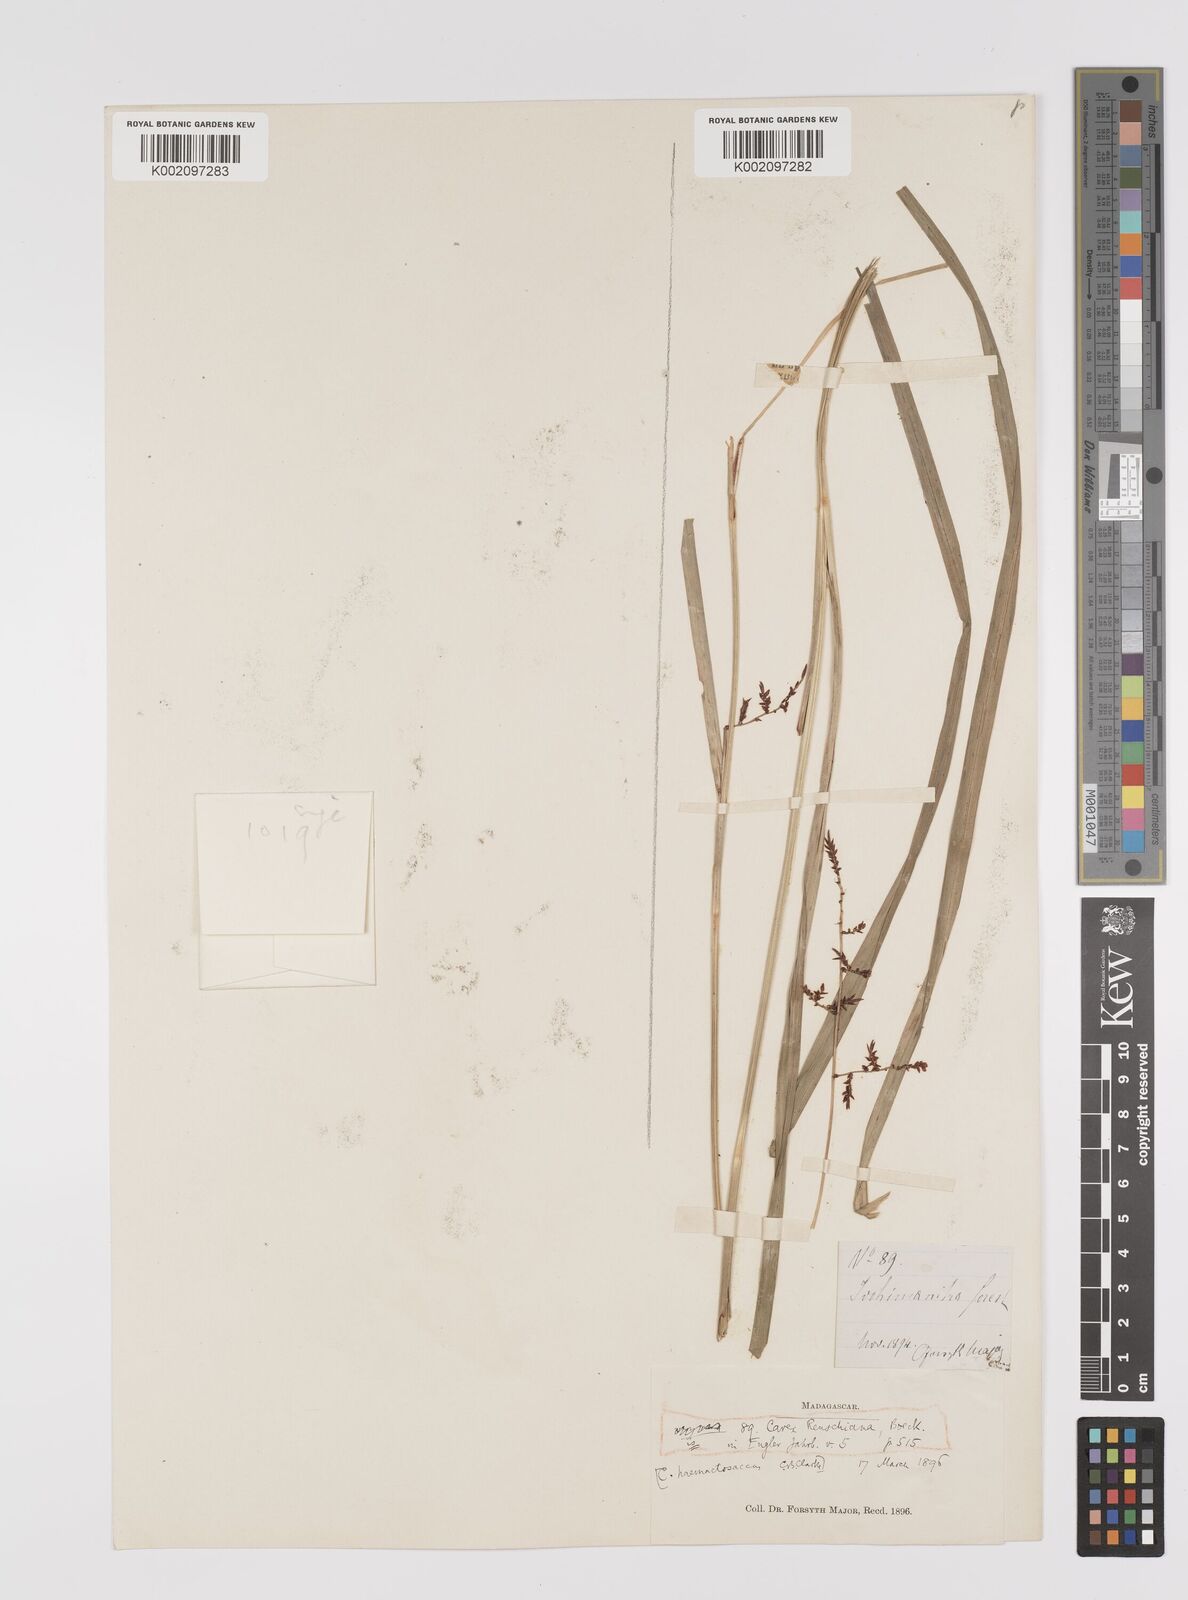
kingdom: Plantae
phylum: Tracheophyta
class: Liliopsida
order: Poales
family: Cyperaceae
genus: Carex
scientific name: Carex renschiana
